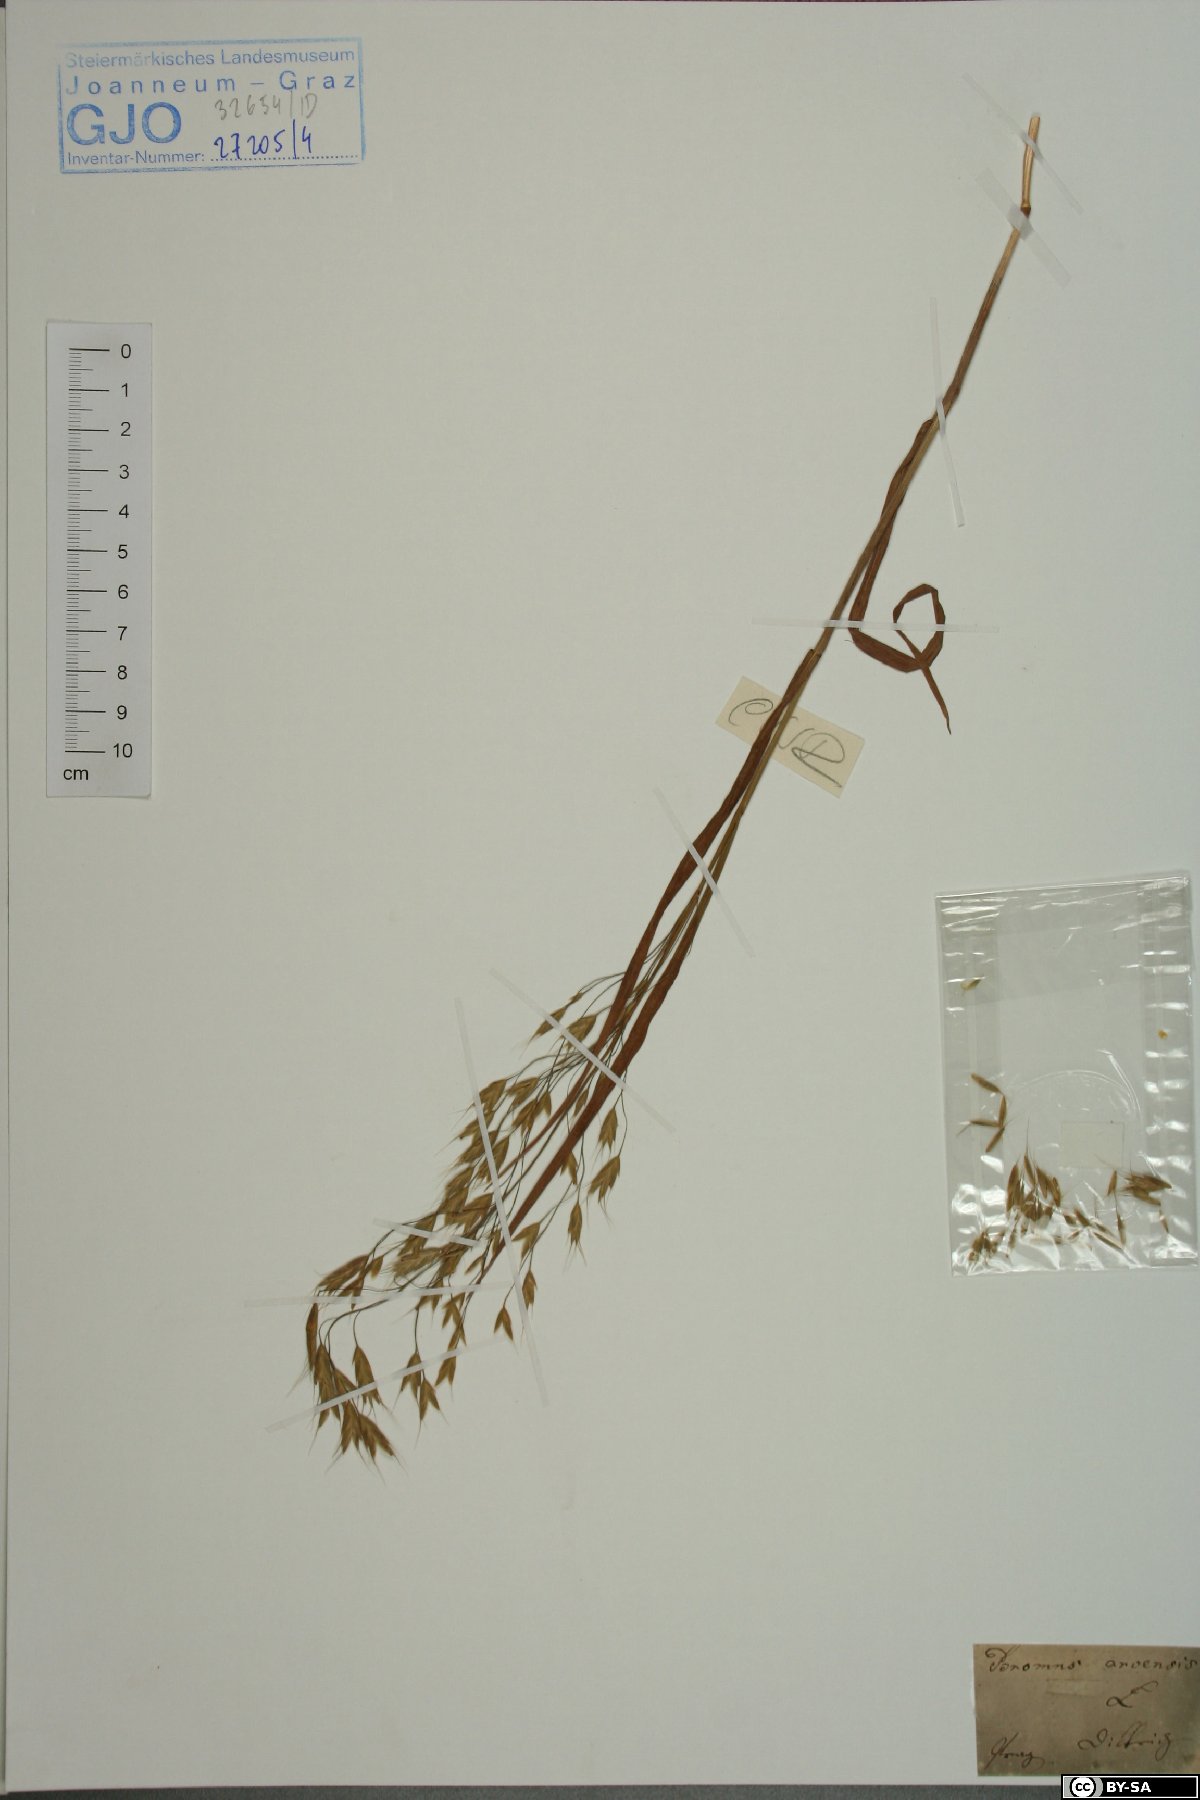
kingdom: Plantae
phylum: Tracheophyta
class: Liliopsida
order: Poales
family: Poaceae
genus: Bromus
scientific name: Bromus arvensis
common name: Field brome
